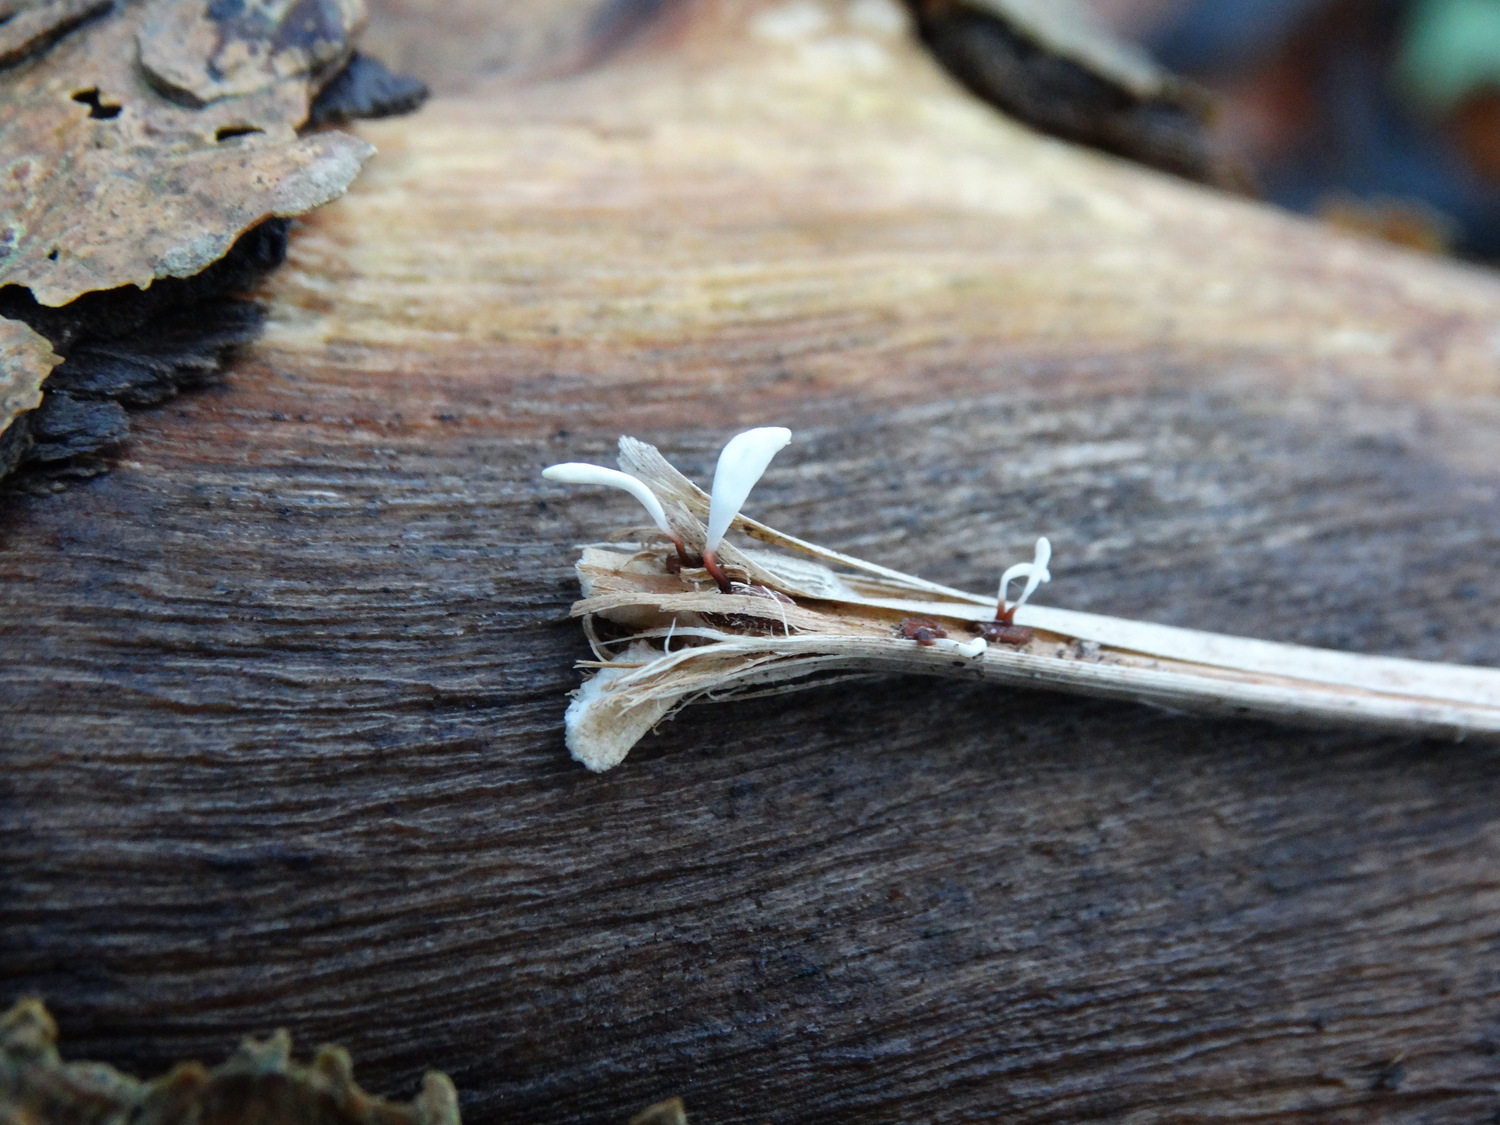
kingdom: Fungi
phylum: Basidiomycota
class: Agaricomycetes
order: Agaricales
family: Typhulaceae
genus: Typhula
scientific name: Typhula erythropus
